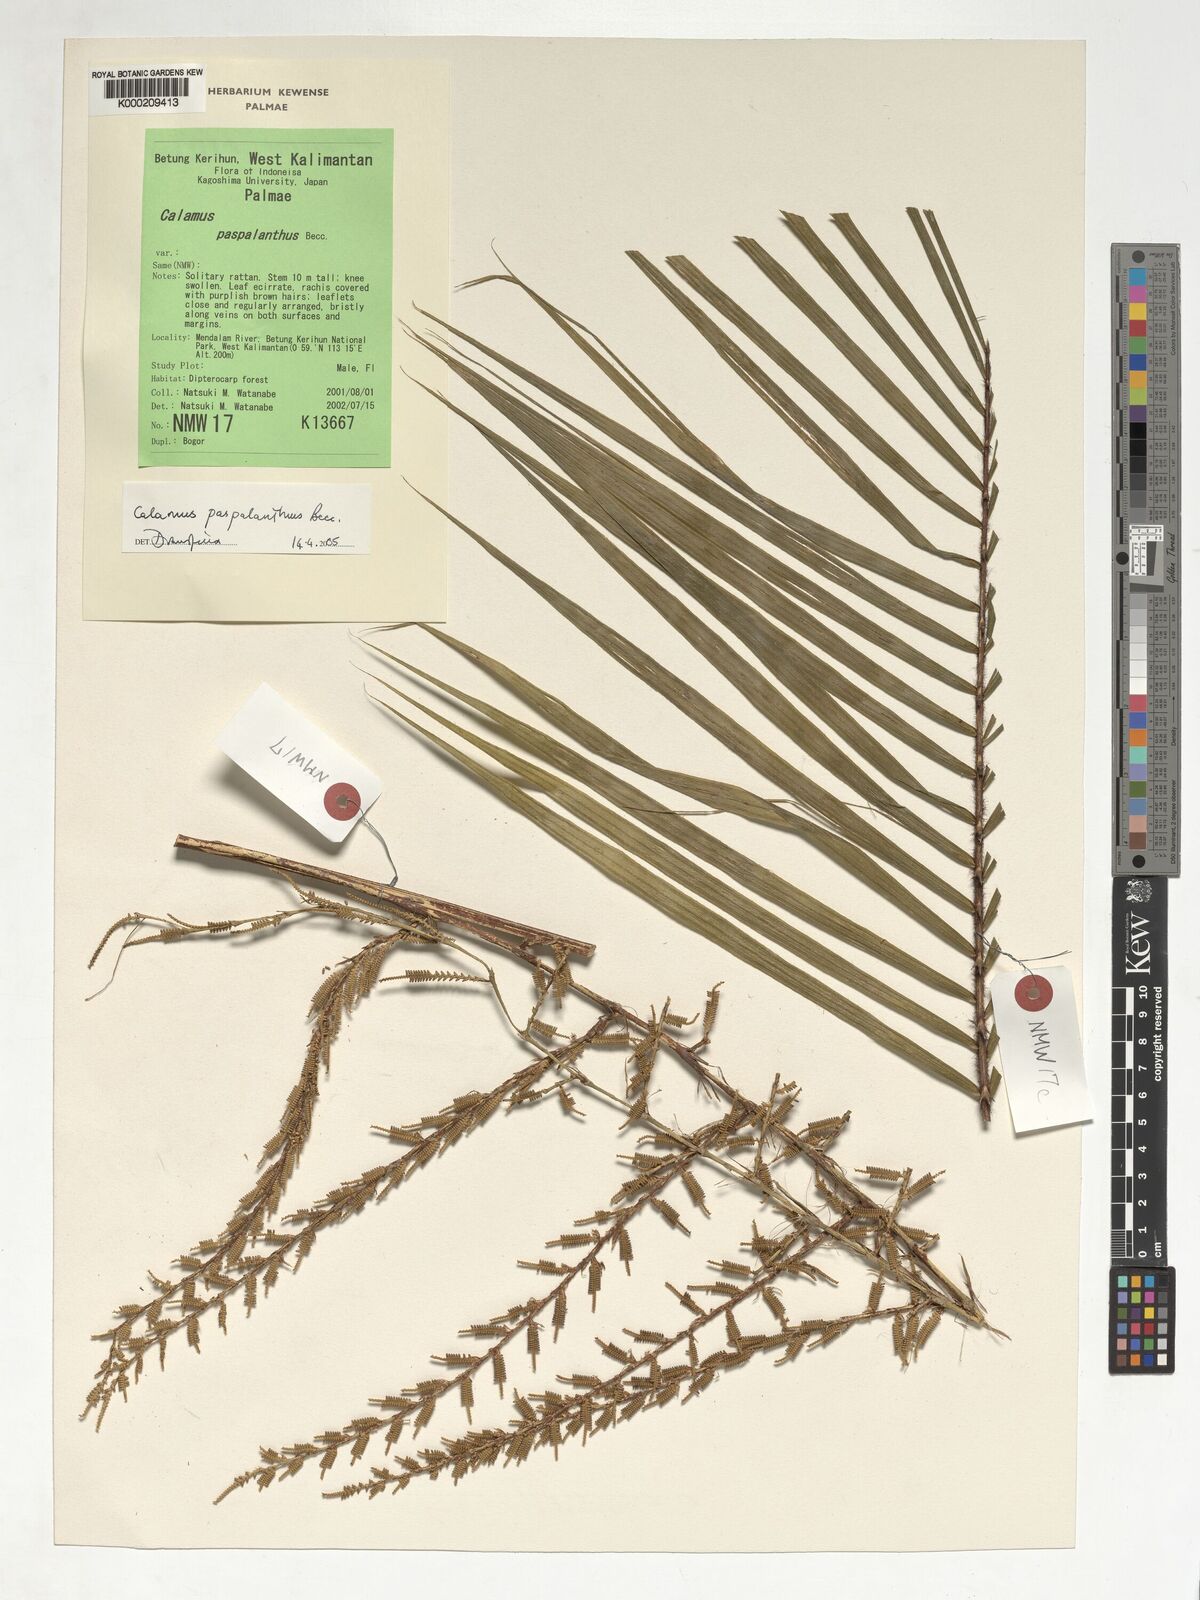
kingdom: Plantae
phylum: Tracheophyta
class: Liliopsida
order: Arecales
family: Arecaceae
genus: Calamus
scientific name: Calamus paspalanthus
